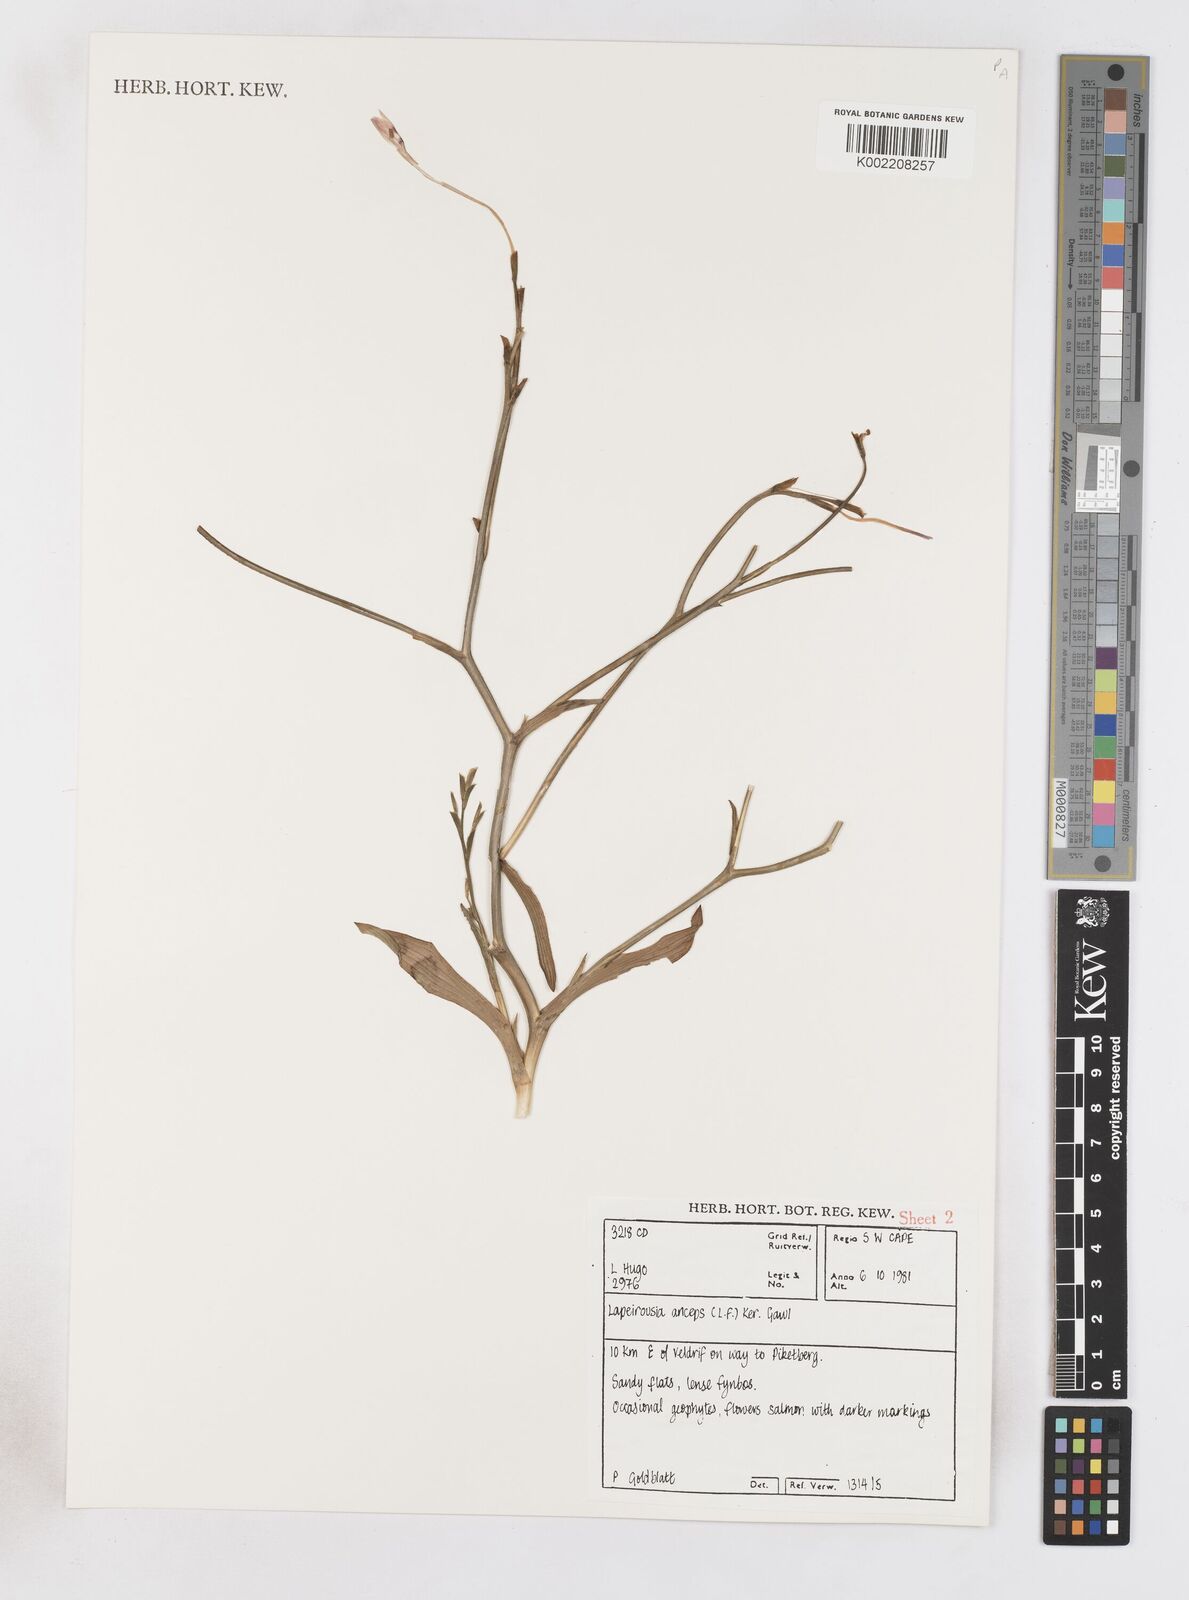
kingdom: Plantae
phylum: Tracheophyta
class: Liliopsida
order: Asparagales
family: Iridaceae
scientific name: Iridaceae
